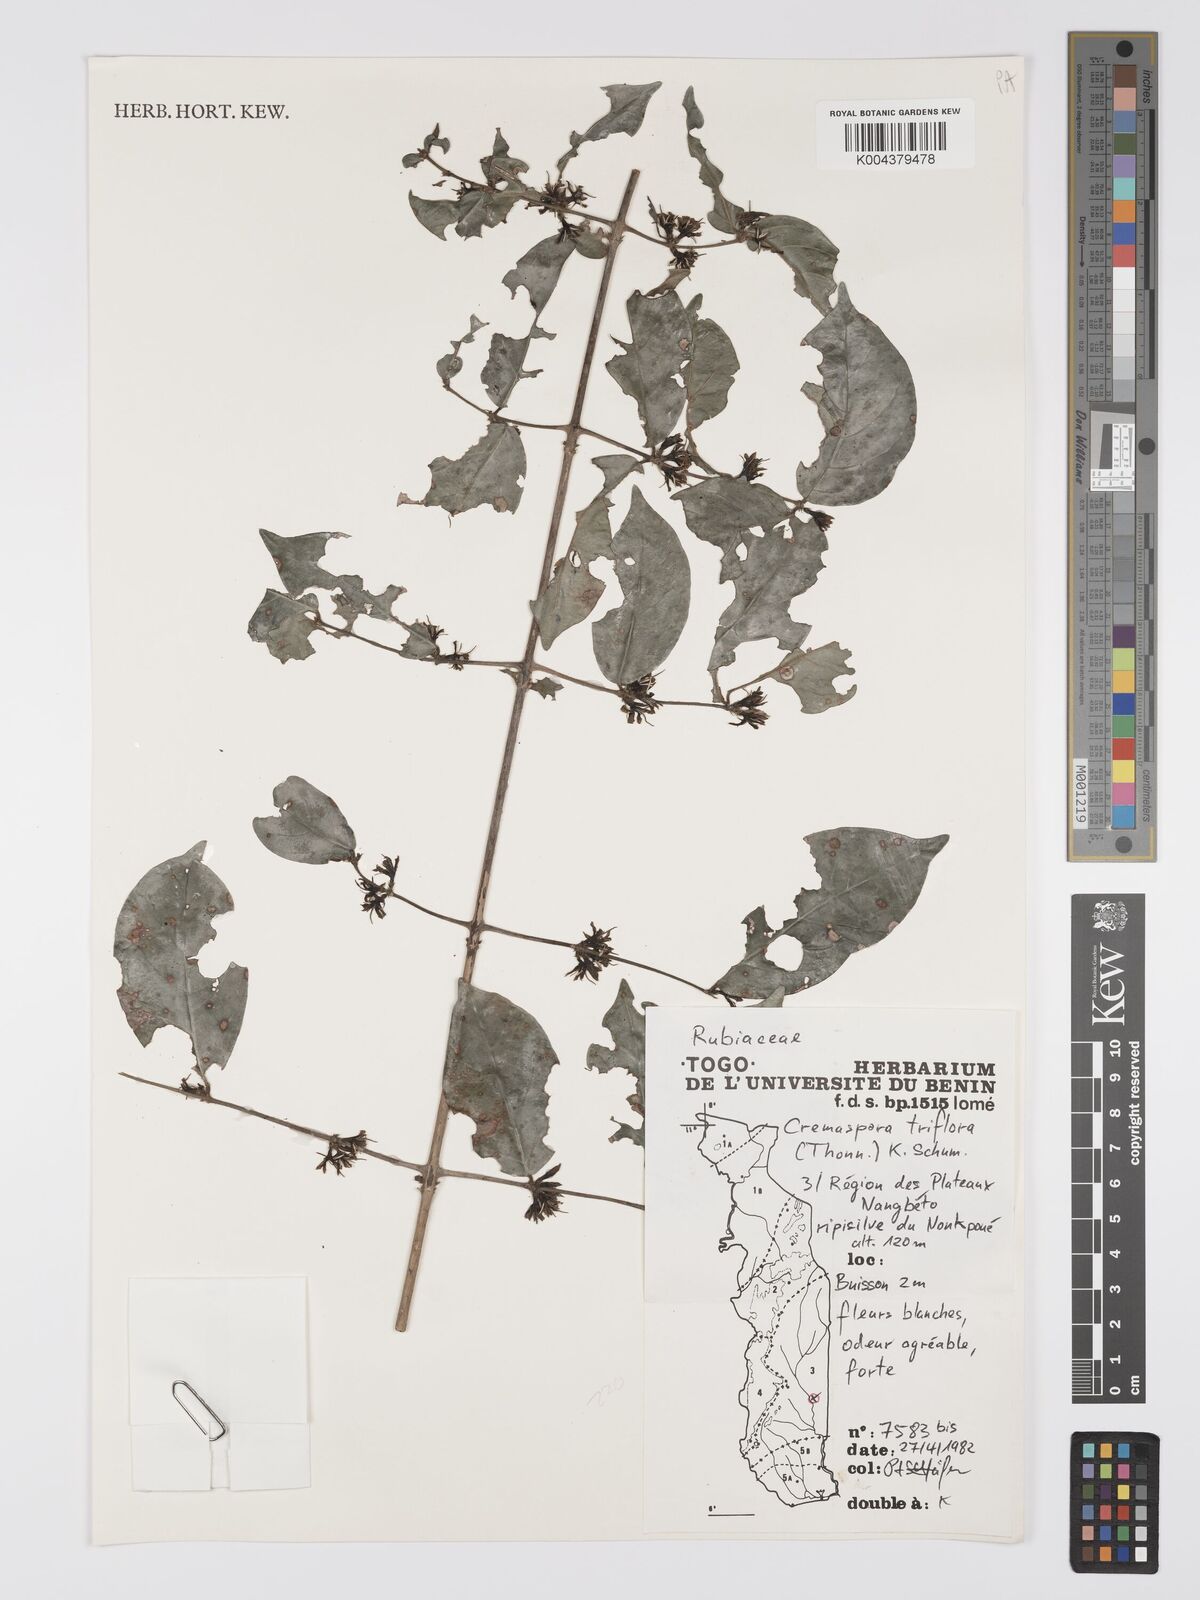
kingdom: Plantae
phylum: Tracheophyta
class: Magnoliopsida
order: Gentianales
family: Rubiaceae
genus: Cremaspora
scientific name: Cremaspora triflora
